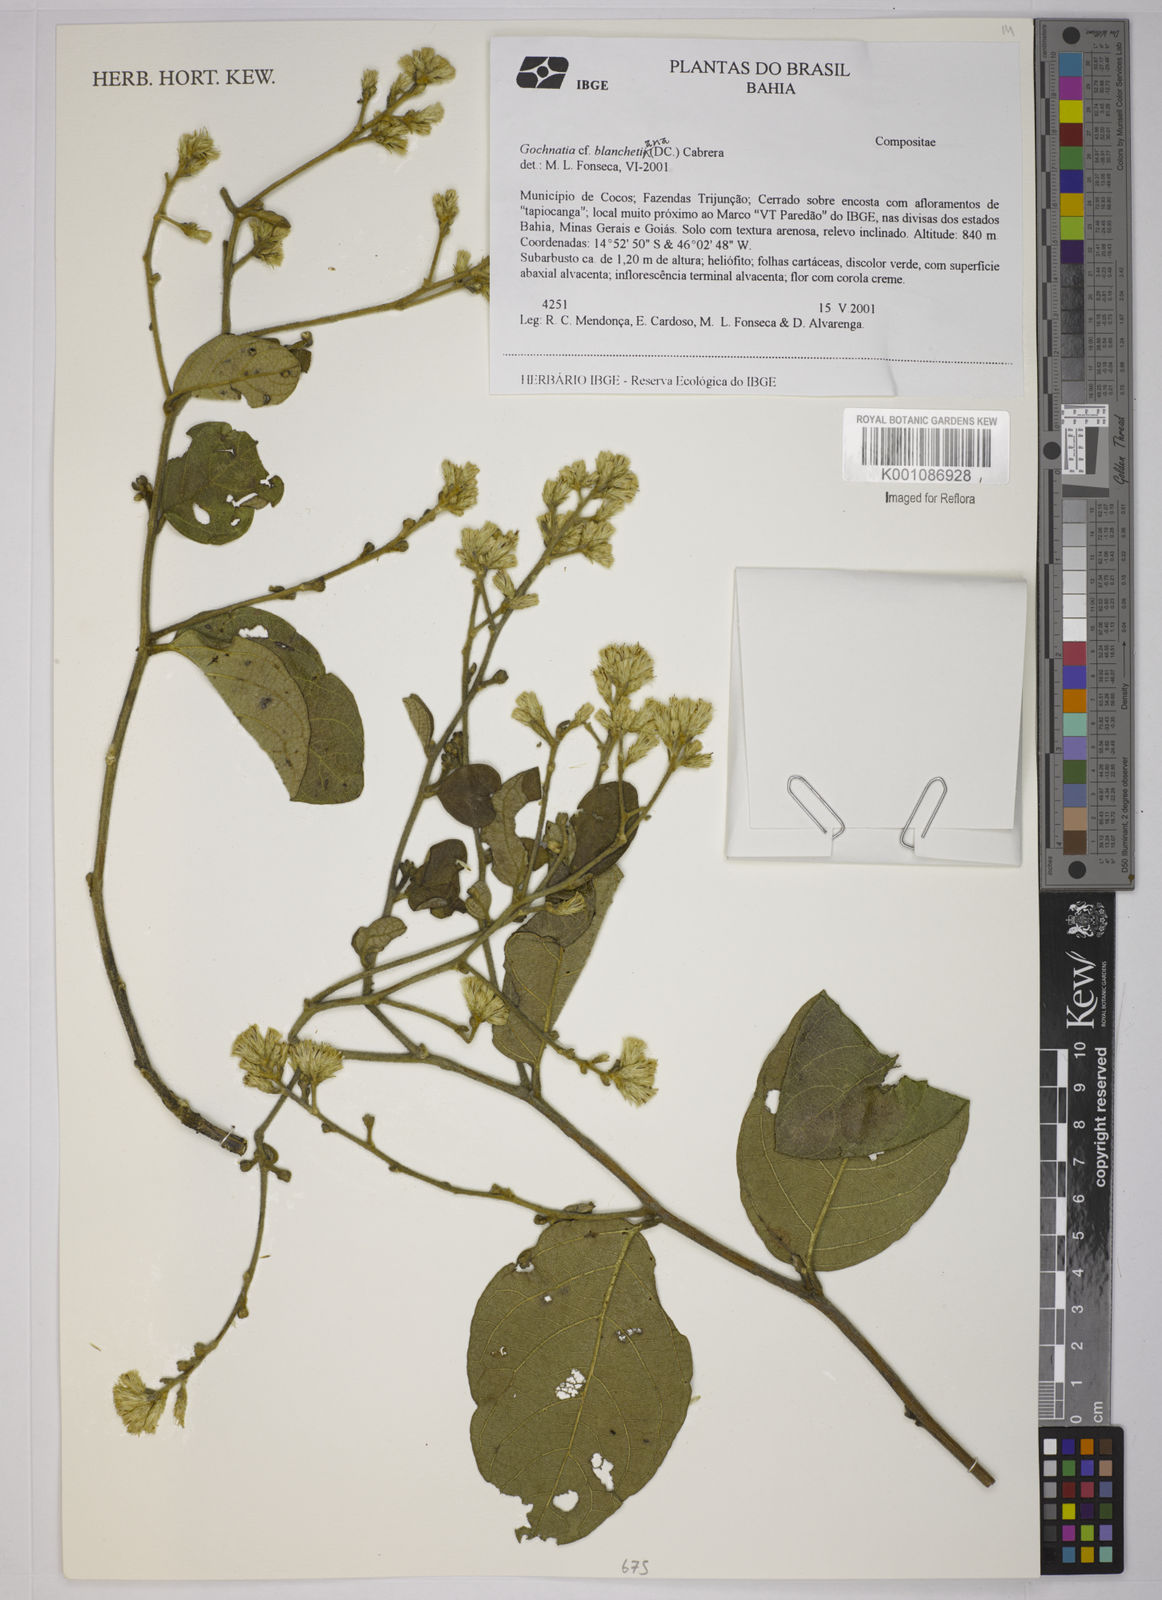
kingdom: Plantae
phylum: Tracheophyta
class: Magnoliopsida
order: Asterales
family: Asteraceae
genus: Moquiniastrum
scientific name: Moquiniastrum blanchetianum
